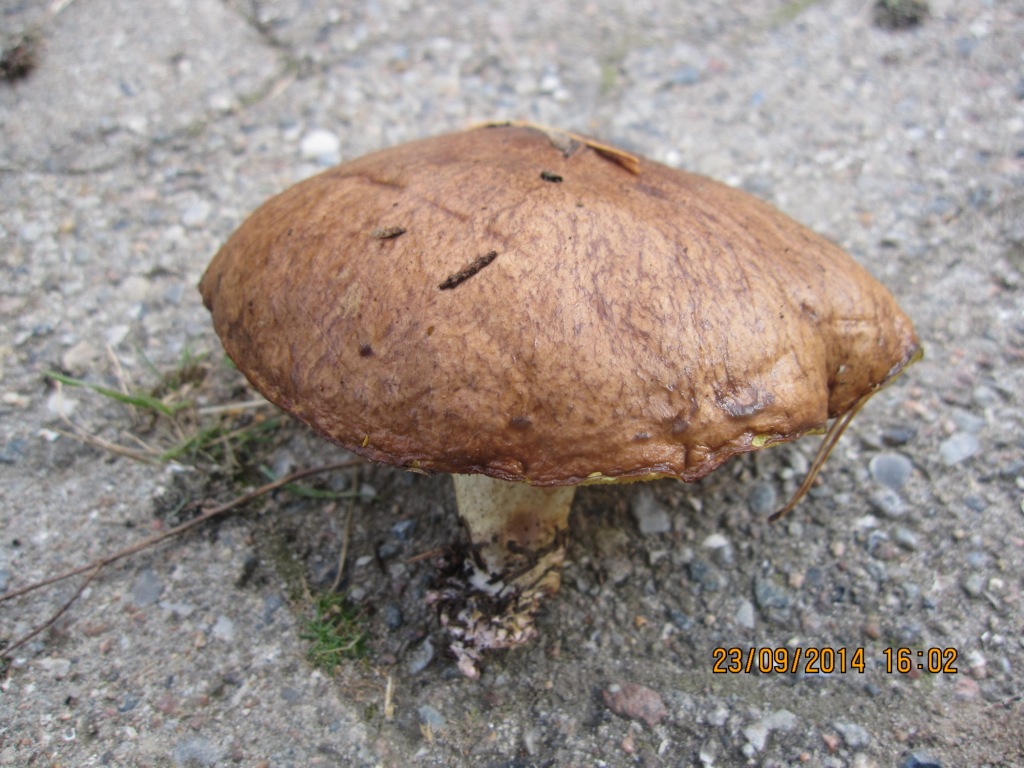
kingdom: Fungi
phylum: Basidiomycota
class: Agaricomycetes
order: Boletales
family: Suillaceae
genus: Suillus
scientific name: Suillus collinitus
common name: rosafodet slimrørhat
